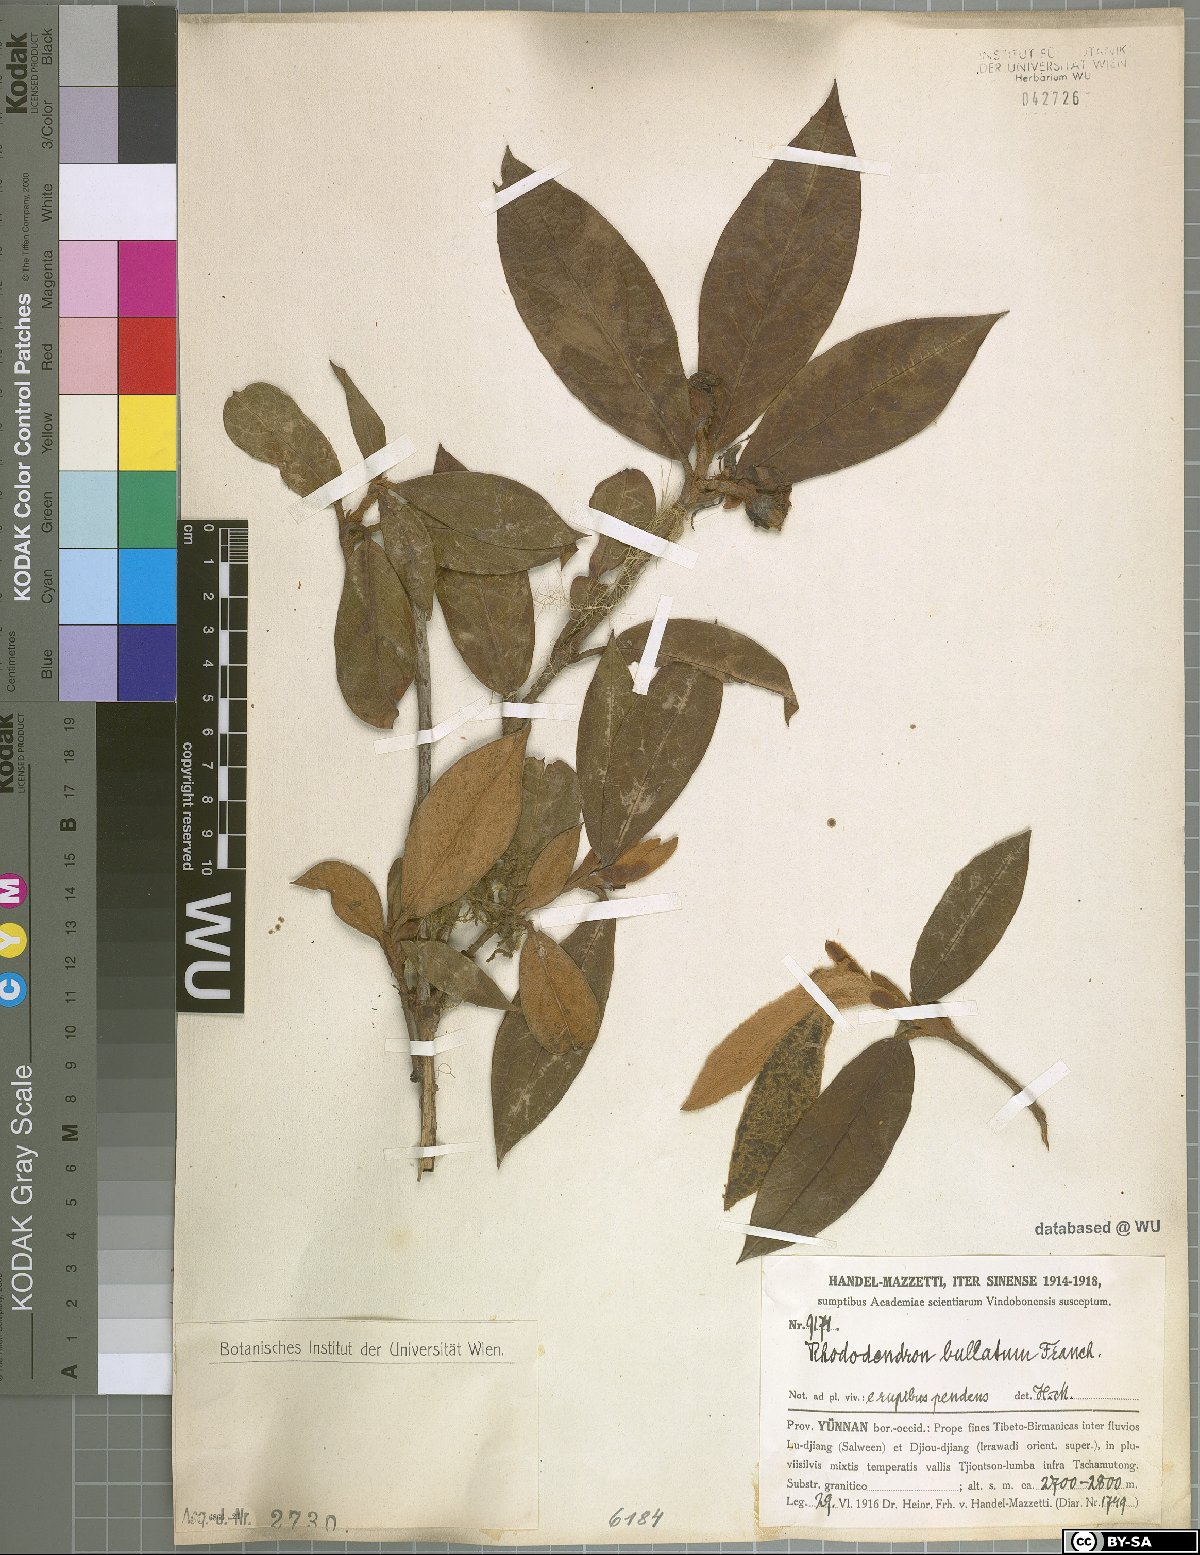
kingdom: Plantae
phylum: Tracheophyta
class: Magnoliopsida
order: Ericales
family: Ericaceae
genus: Rhododendron
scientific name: Rhododendron edgeworthii
